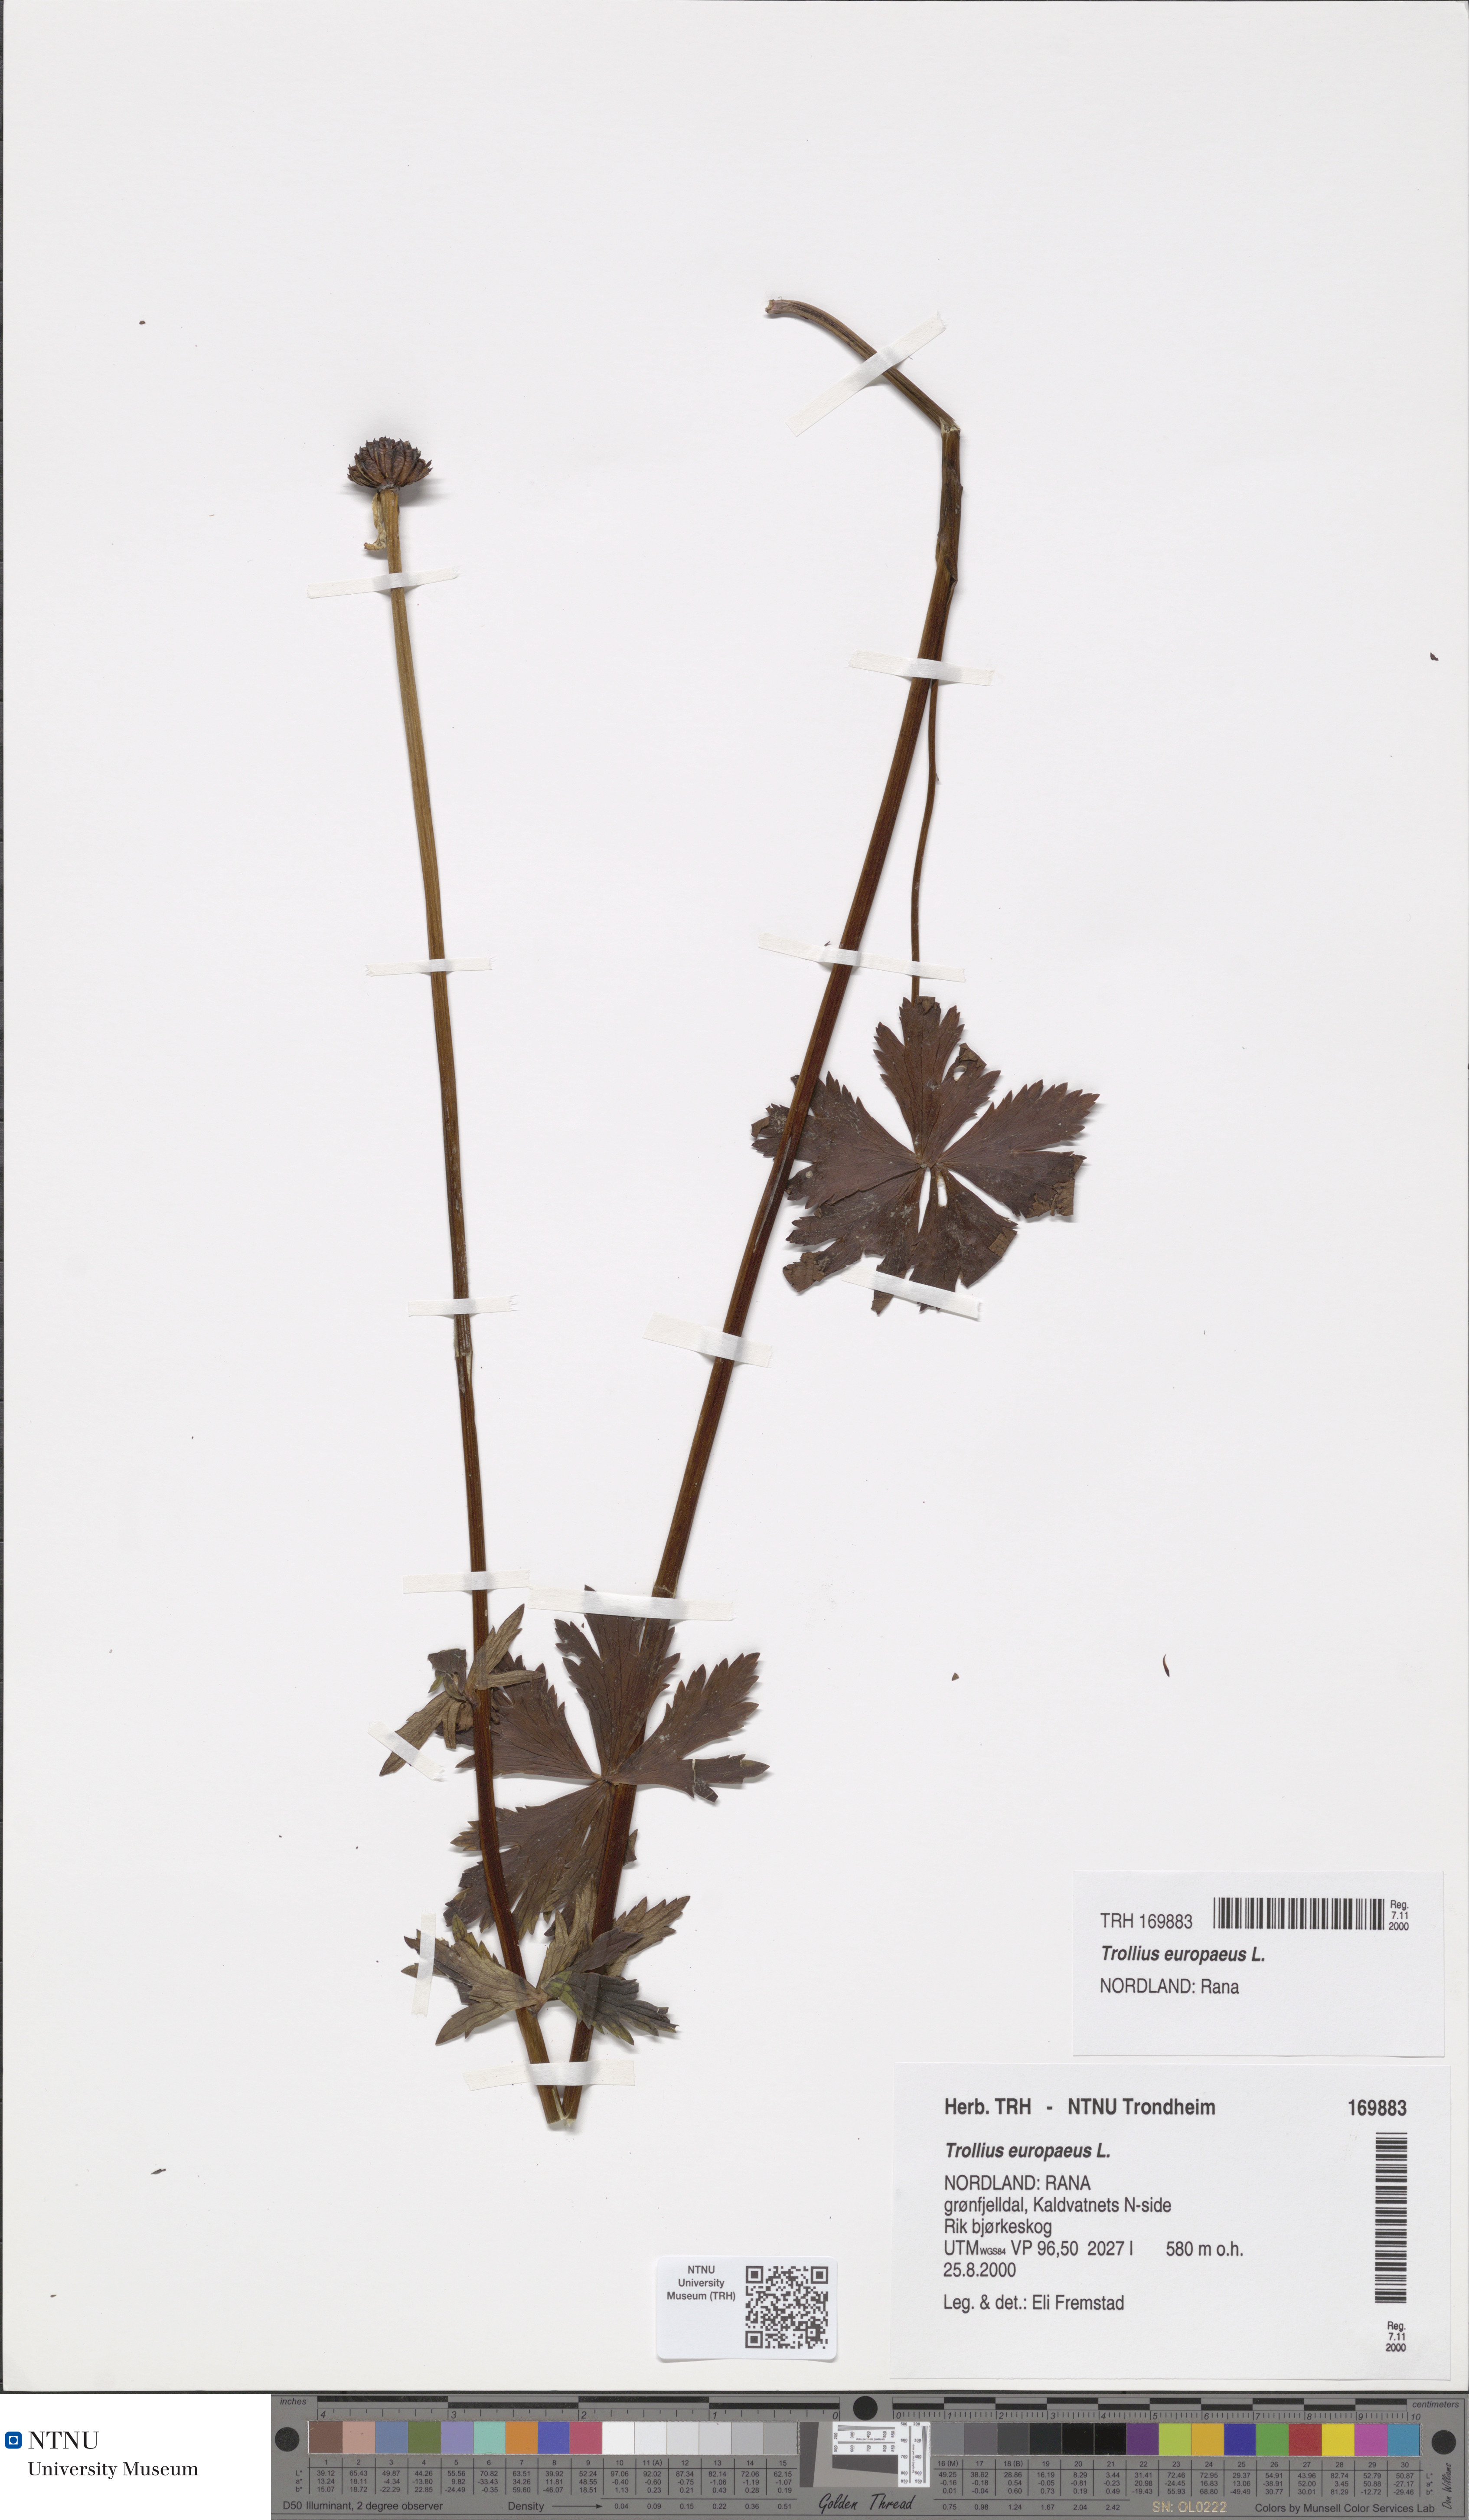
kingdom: Plantae
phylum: Tracheophyta
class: Magnoliopsida
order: Ranunculales
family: Ranunculaceae
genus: Trollius
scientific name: Trollius europaeus
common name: European globeflower
